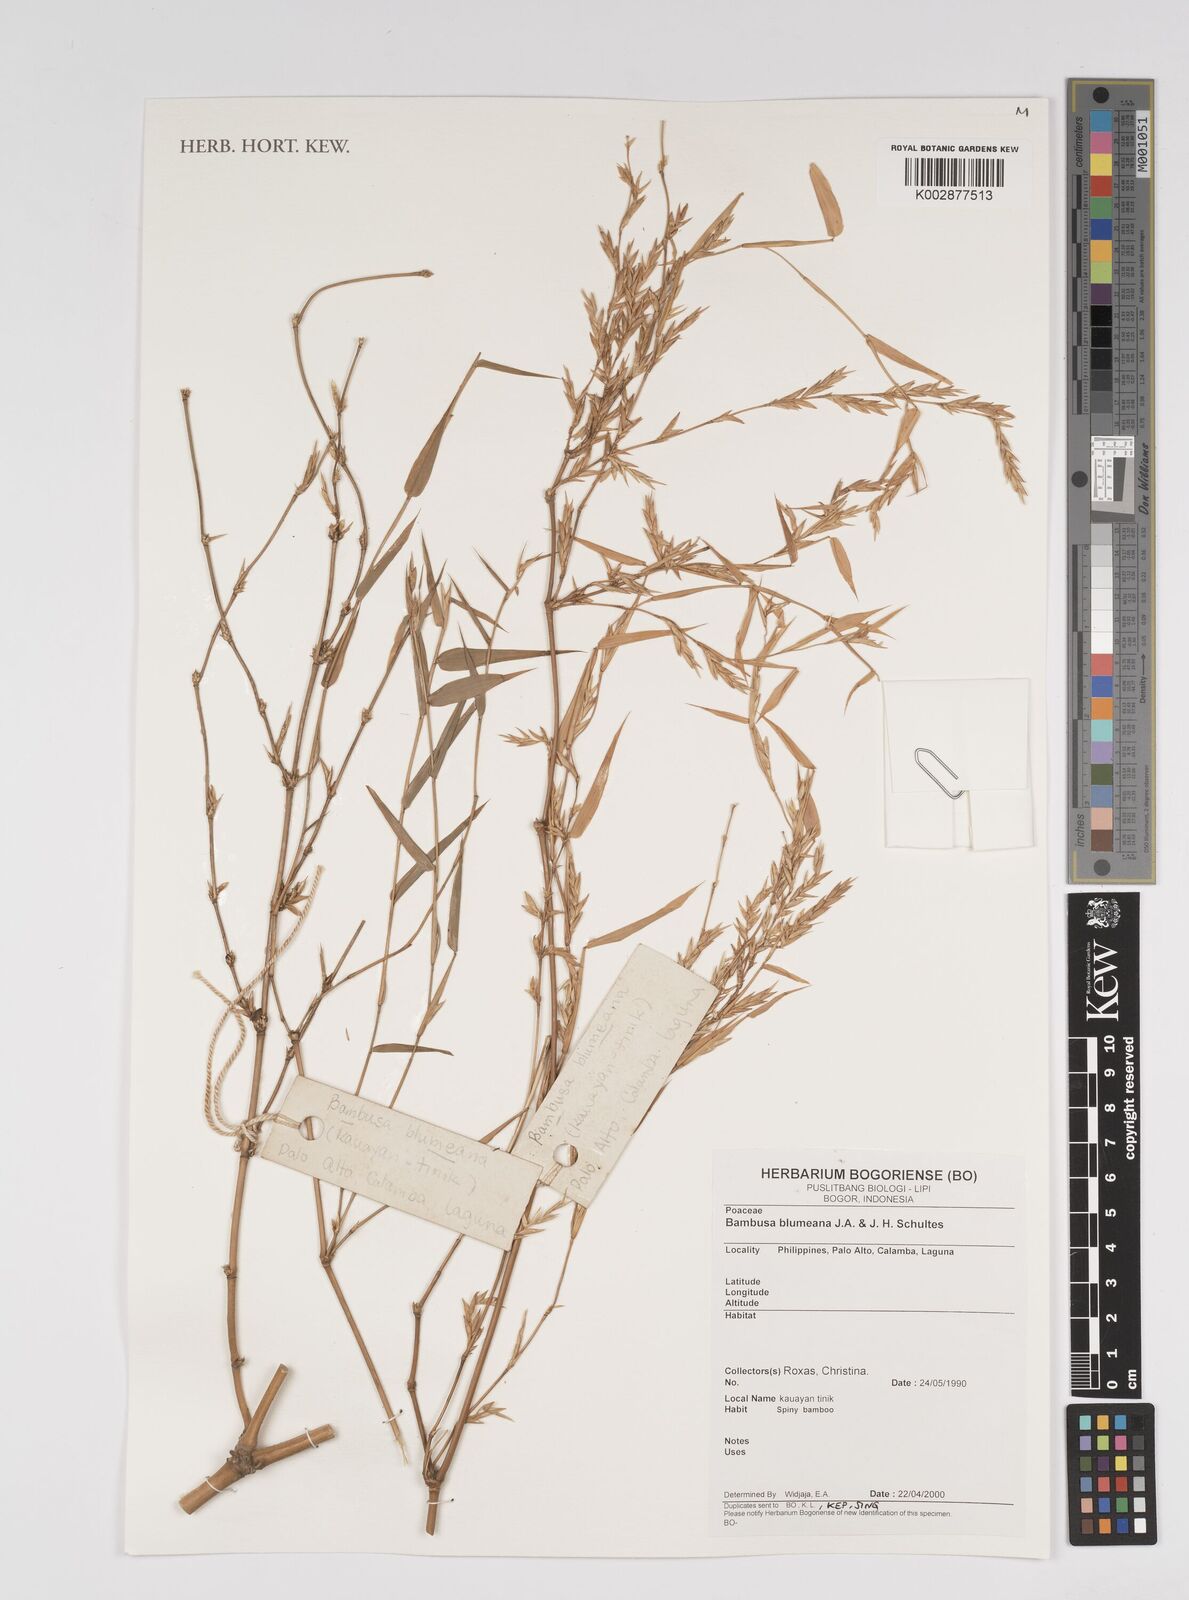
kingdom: Plantae
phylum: Tracheophyta
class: Liliopsida
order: Poales
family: Poaceae
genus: Bambusa
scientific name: Bambusa spinosa
